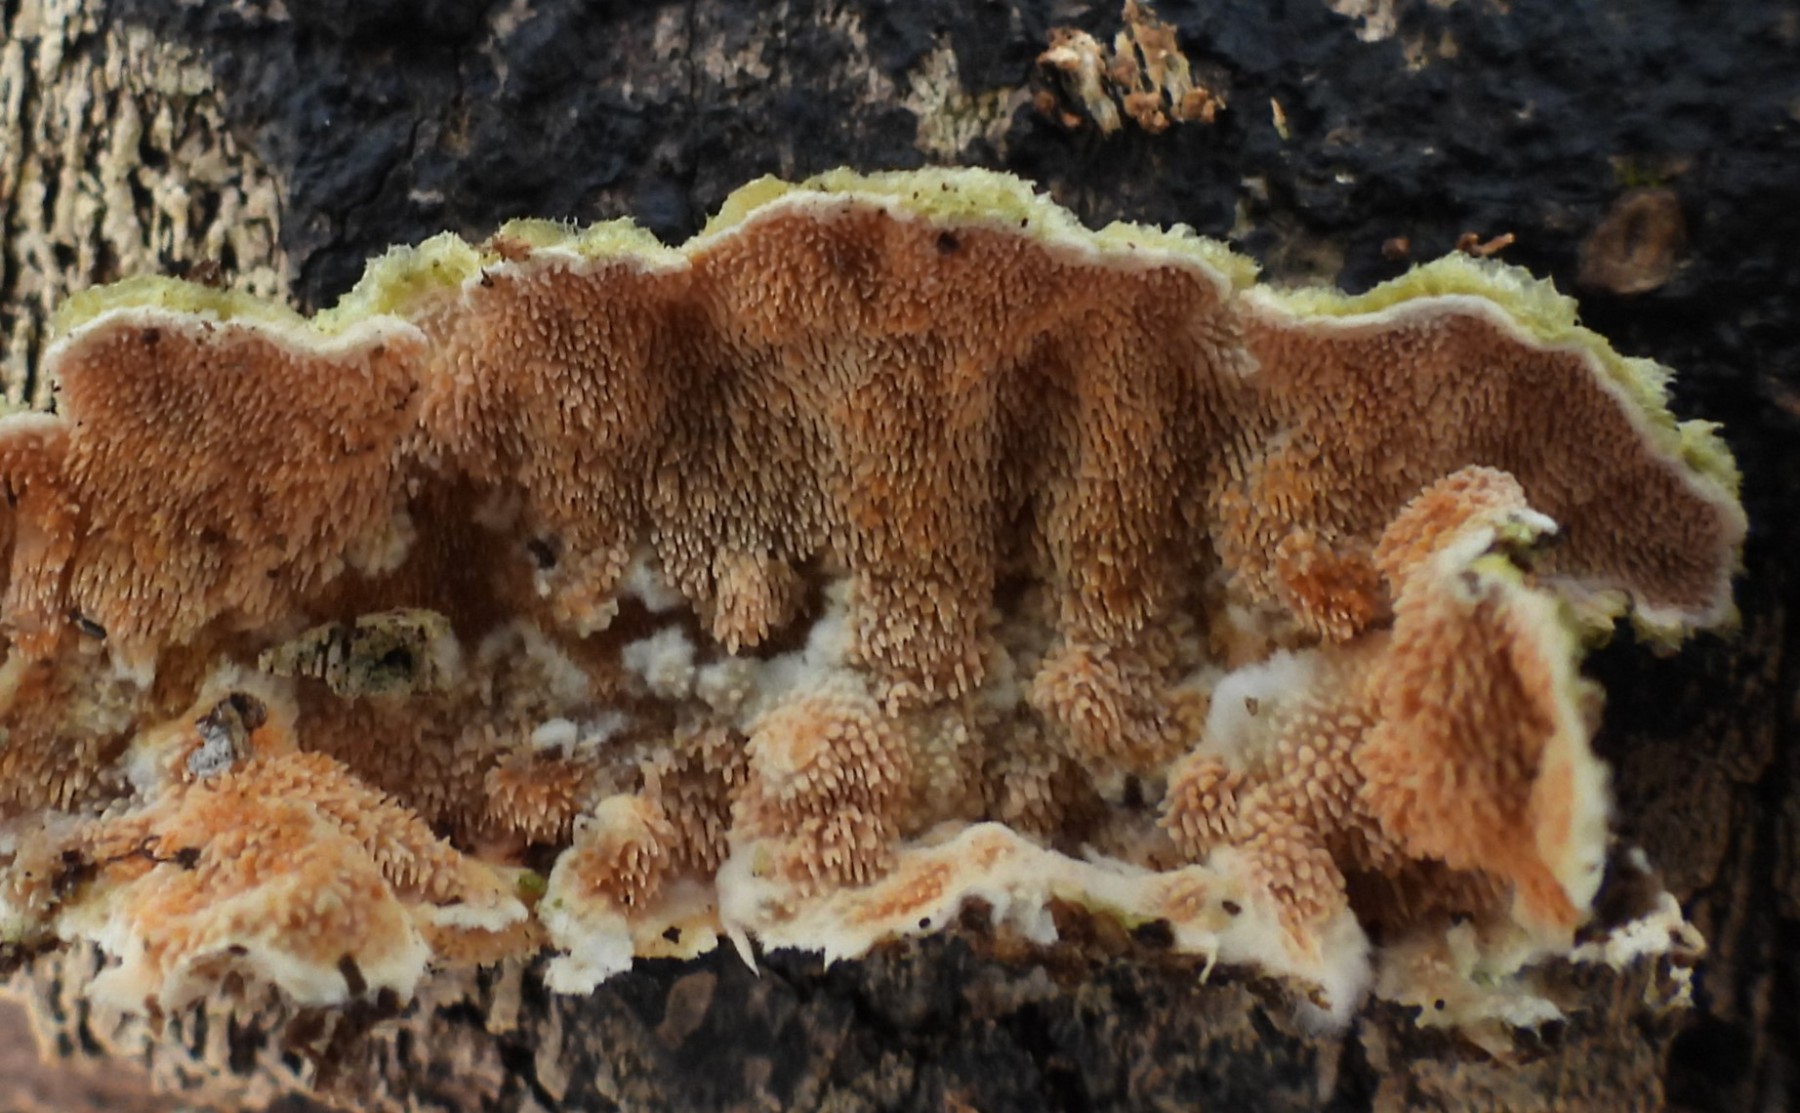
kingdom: Fungi
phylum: Basidiomycota
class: Agaricomycetes
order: Polyporales
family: Steccherinaceae
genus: Steccherinum
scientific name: Steccherinum ochraceum
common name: almindelig skønpig
